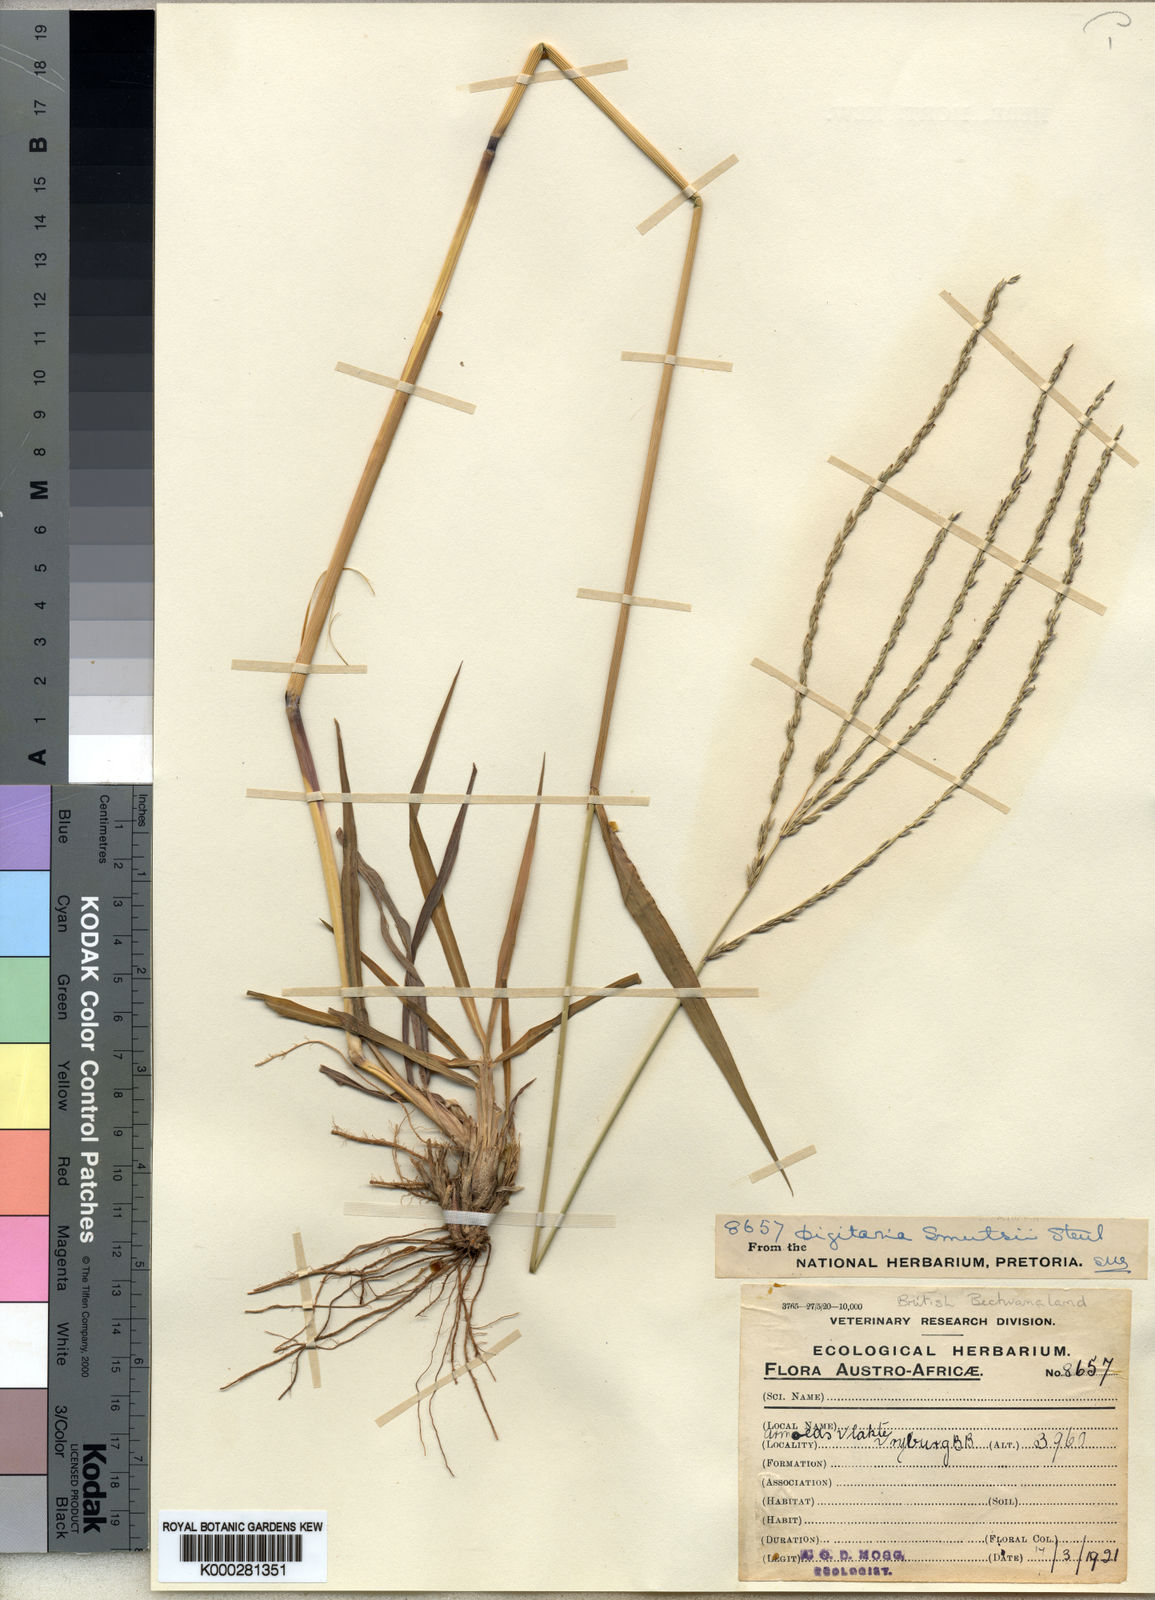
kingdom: Plantae
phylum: Tracheophyta
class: Liliopsida
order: Poales
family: Poaceae
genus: Digitaria
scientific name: Digitaria eriantha
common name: Digitgrass
